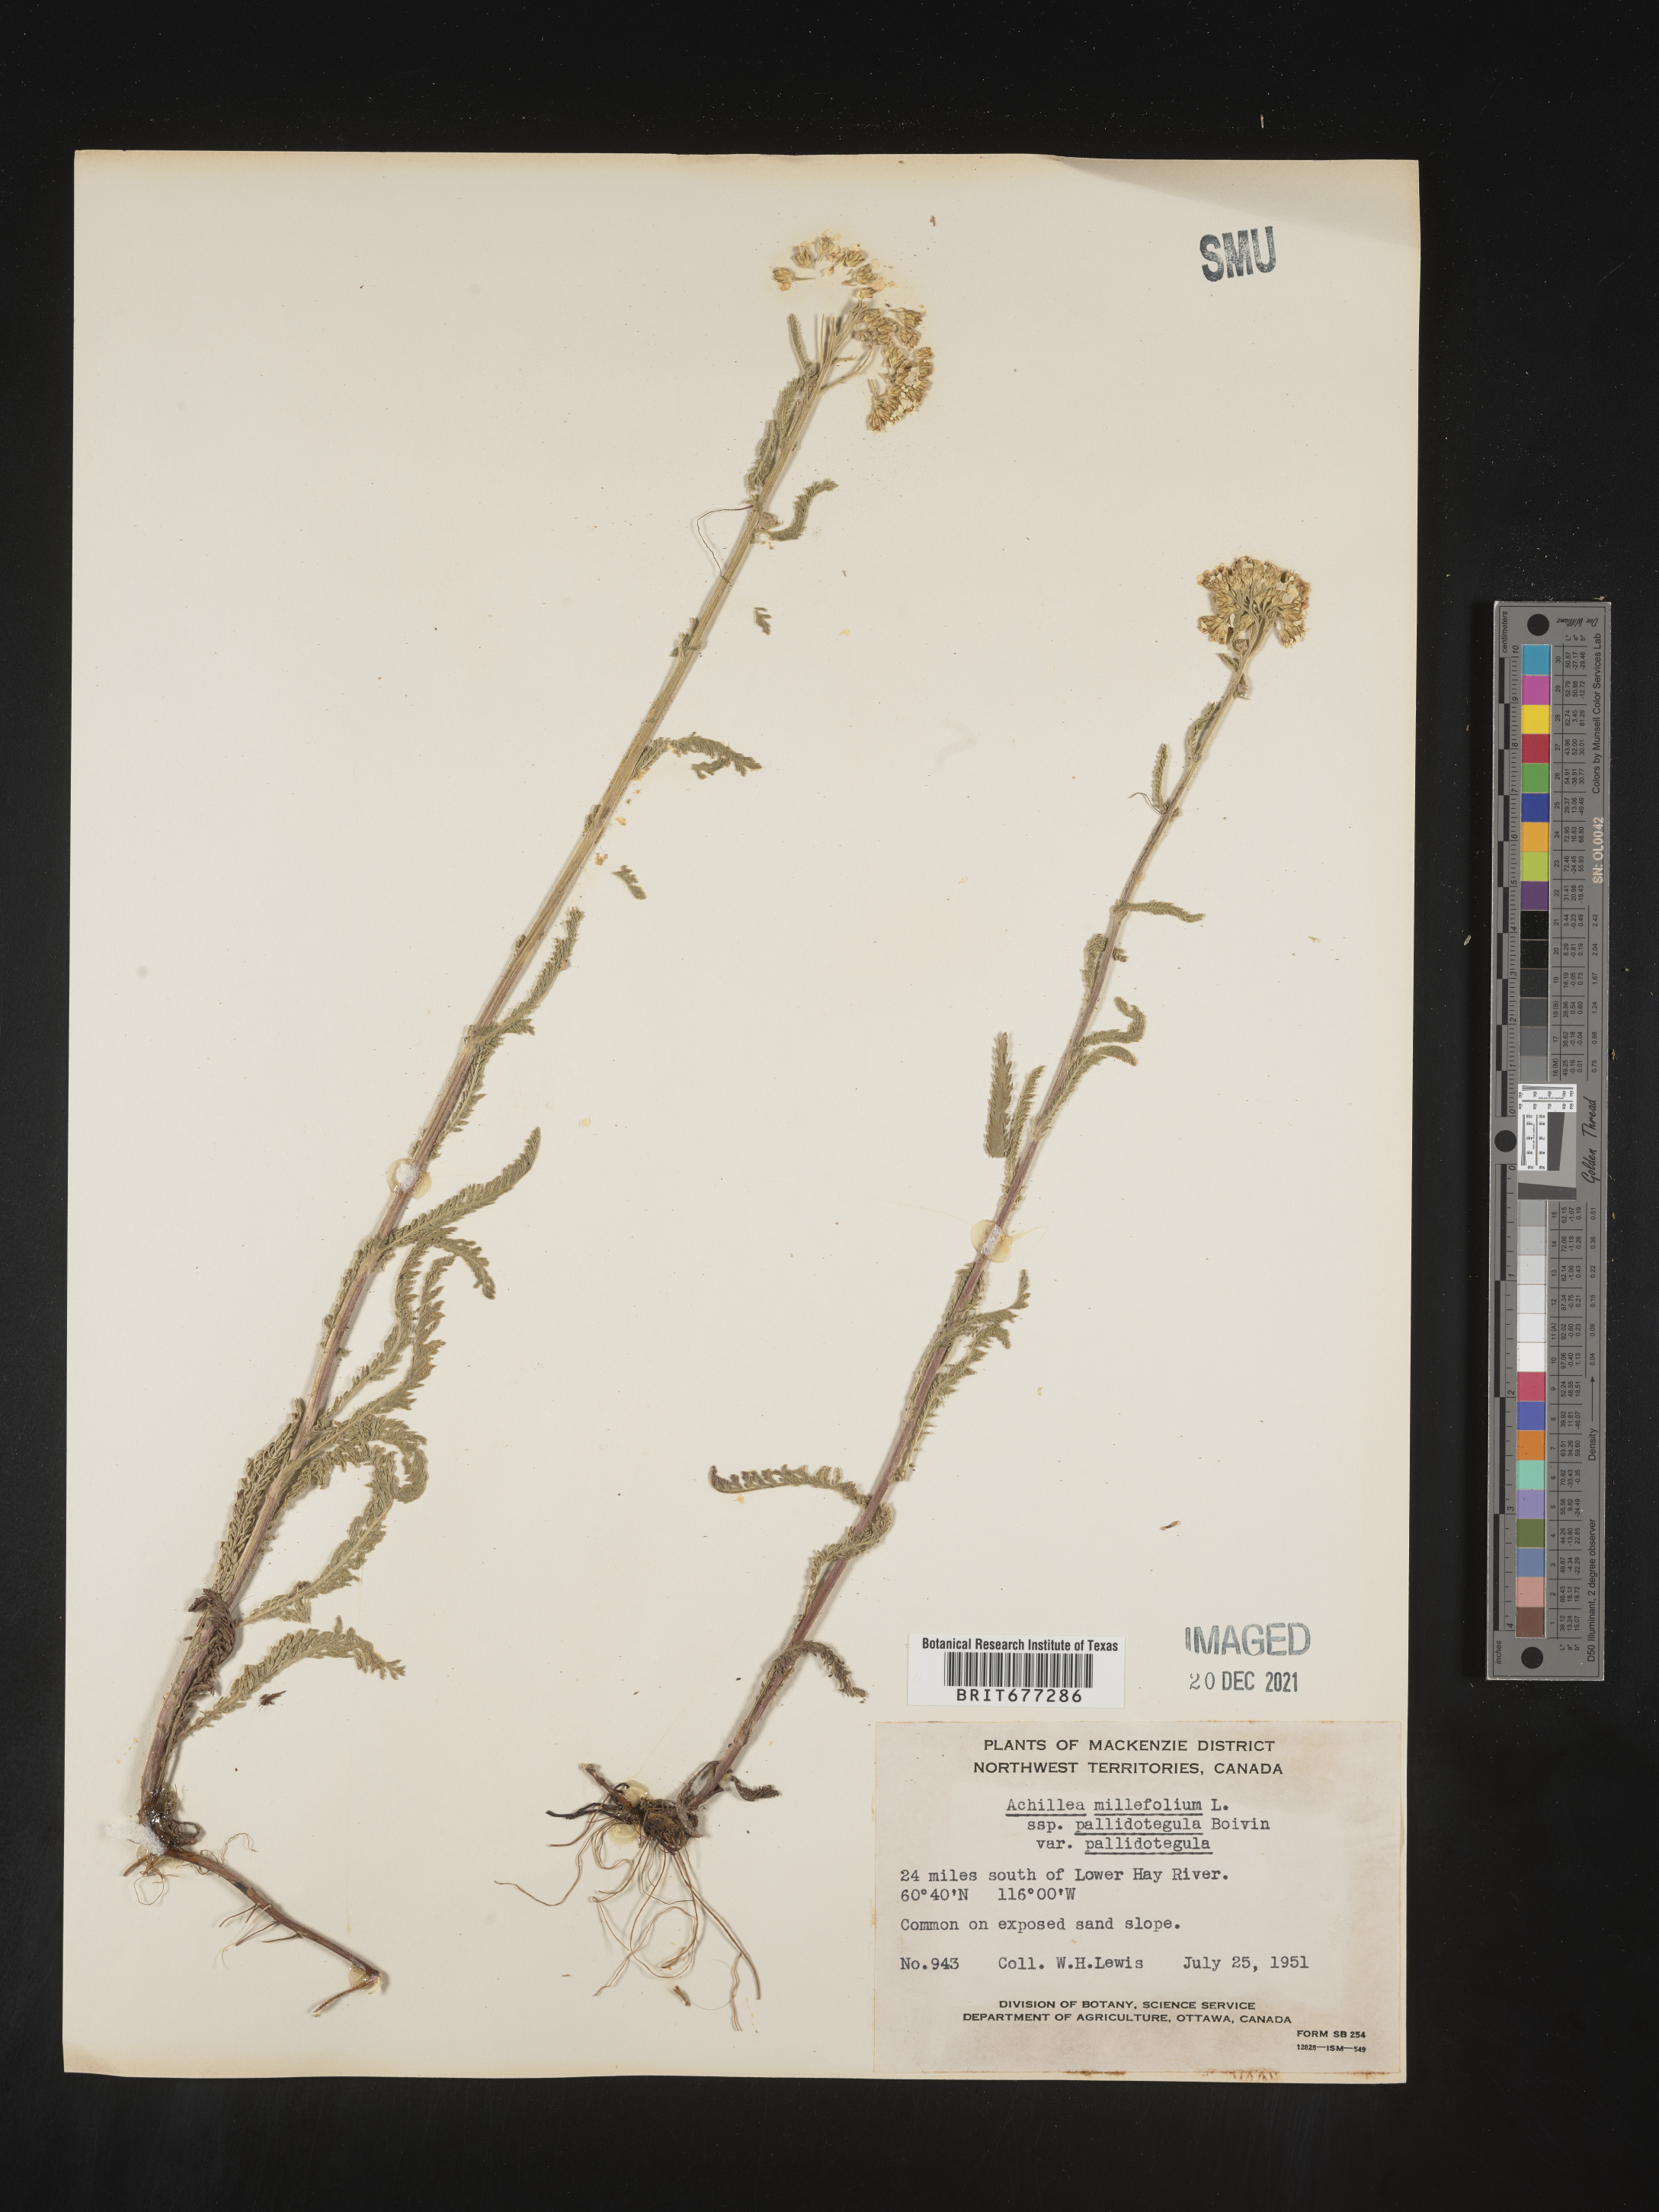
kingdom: Plantae
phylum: Tracheophyta
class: Magnoliopsida
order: Asterales
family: Asteraceae
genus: Achillea
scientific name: Achillea
